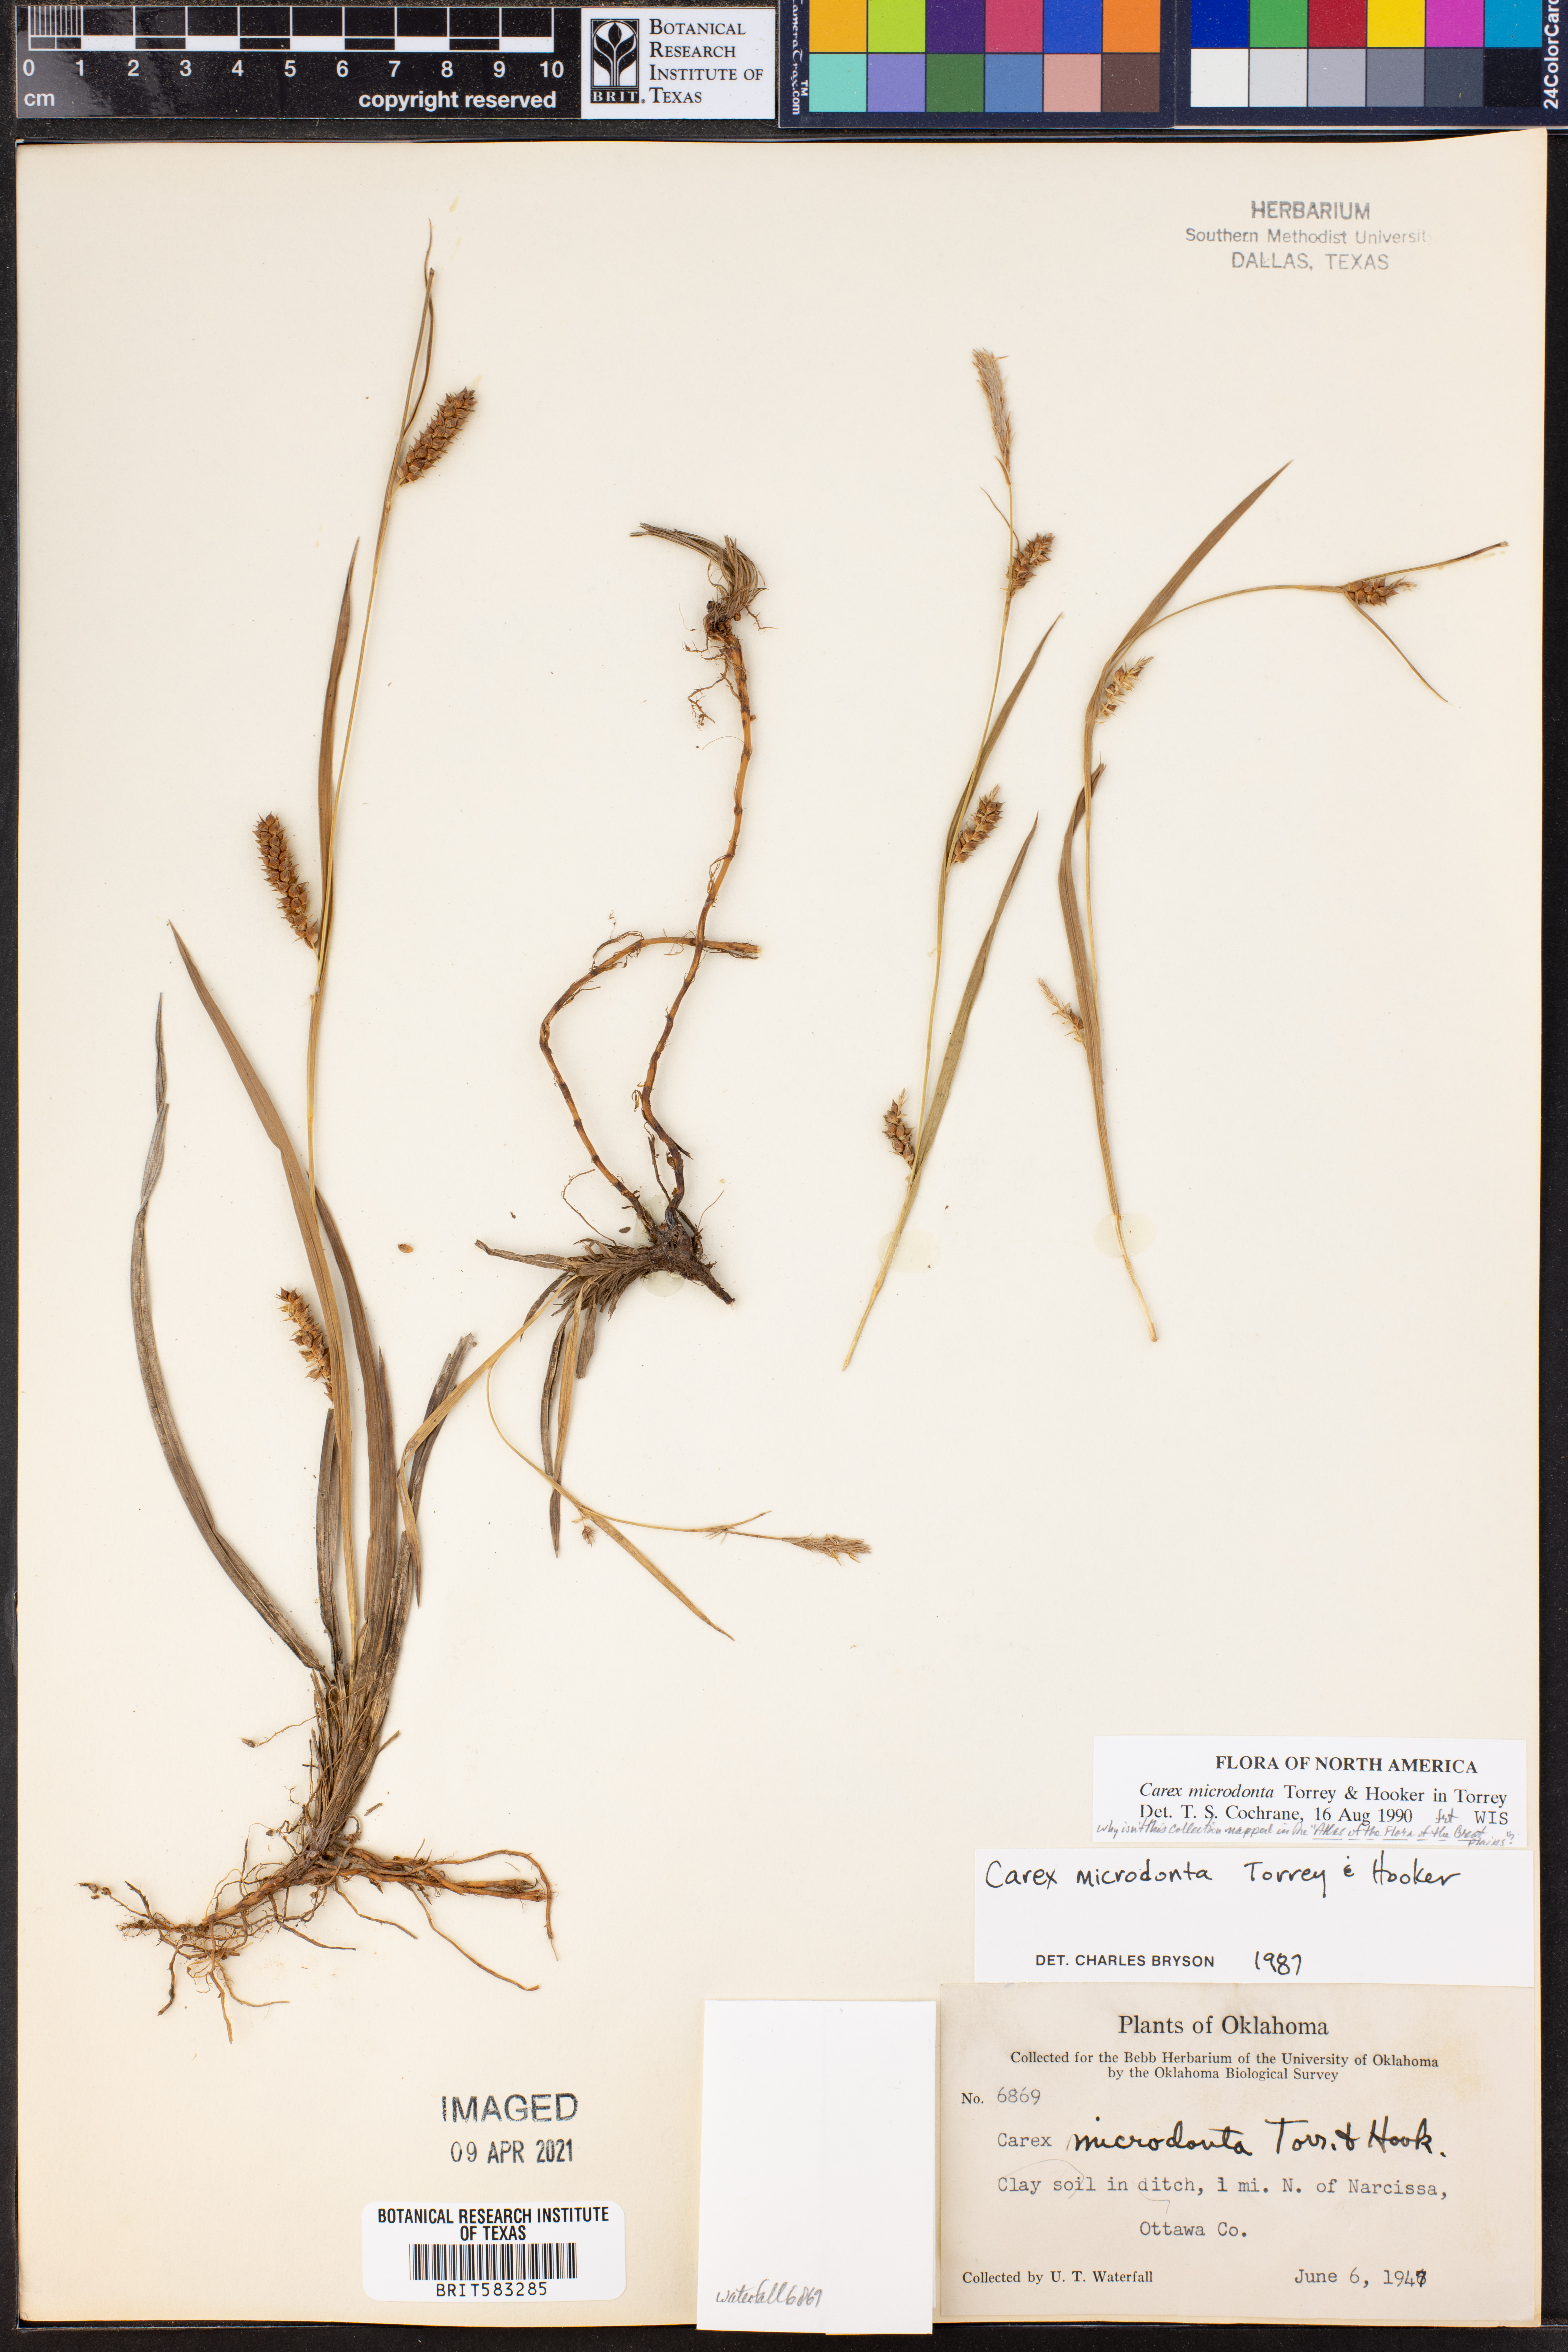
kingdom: Plantae
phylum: Tracheophyta
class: Liliopsida
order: Poales
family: Cyperaceae
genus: Carex
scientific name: Carex microdonta
